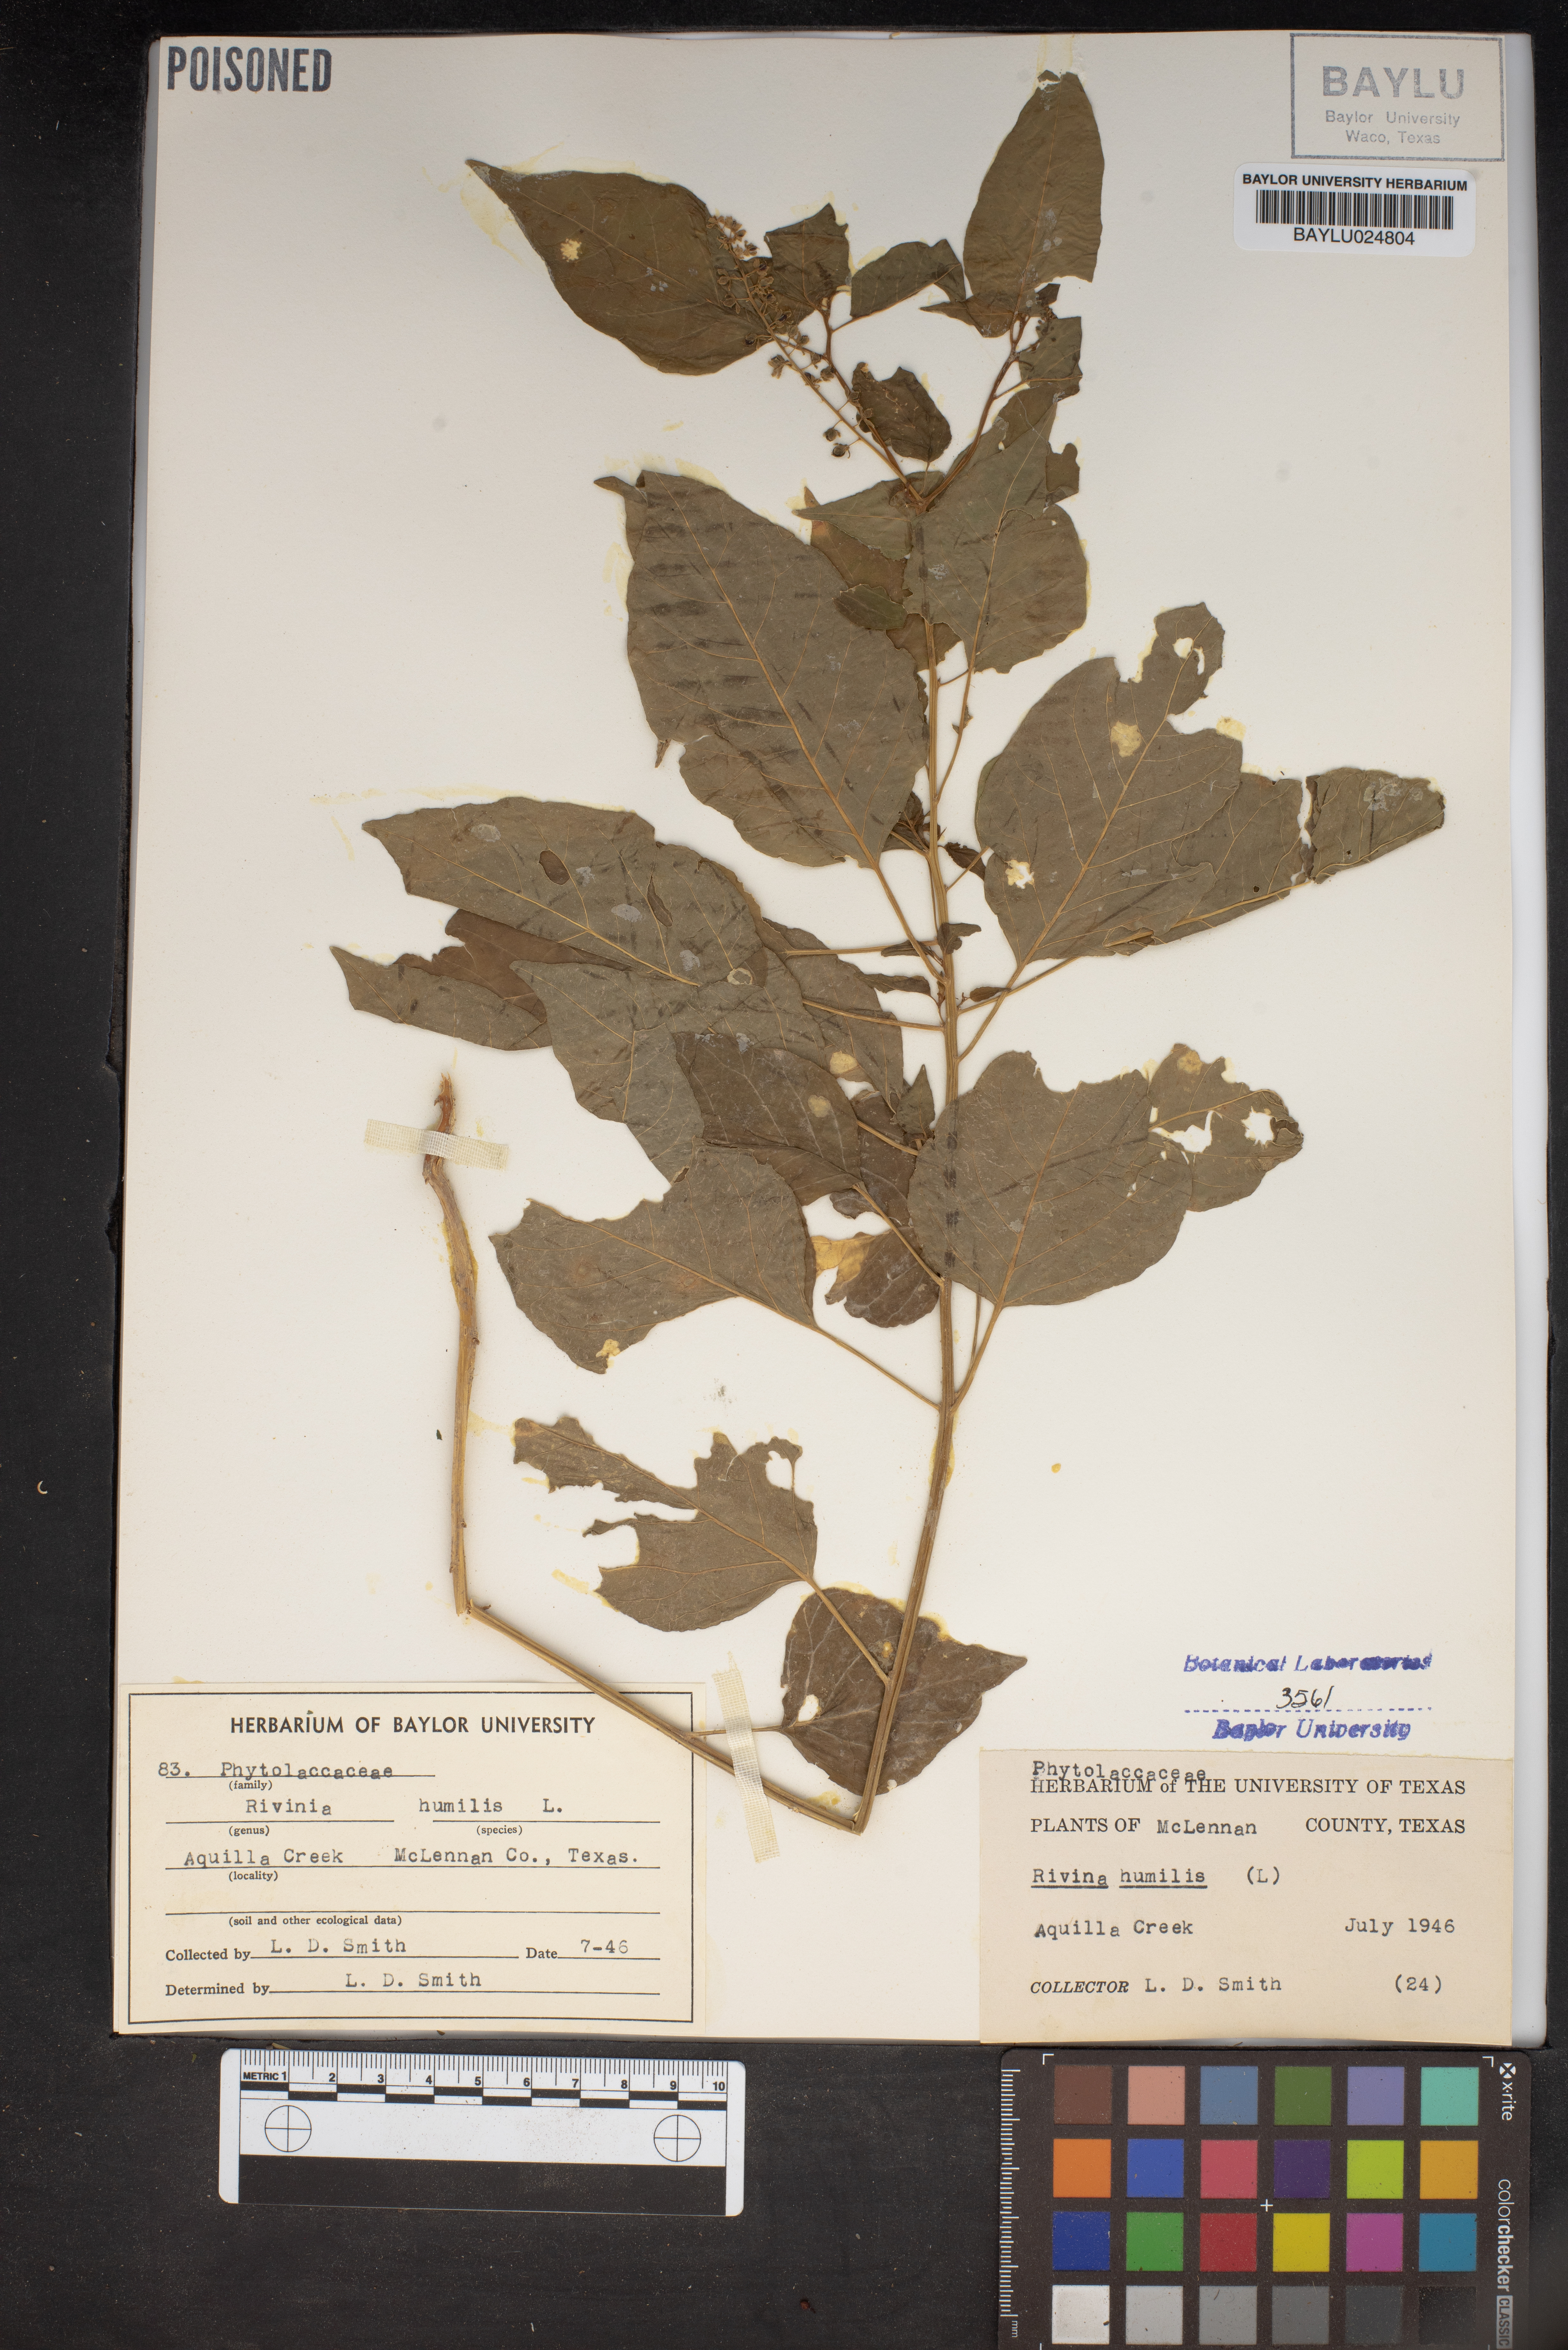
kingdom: Plantae
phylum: Tracheophyta
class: Magnoliopsida
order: Caryophyllales
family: Phytolaccaceae
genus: Rivina
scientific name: Rivina humilis
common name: Rougeplant
